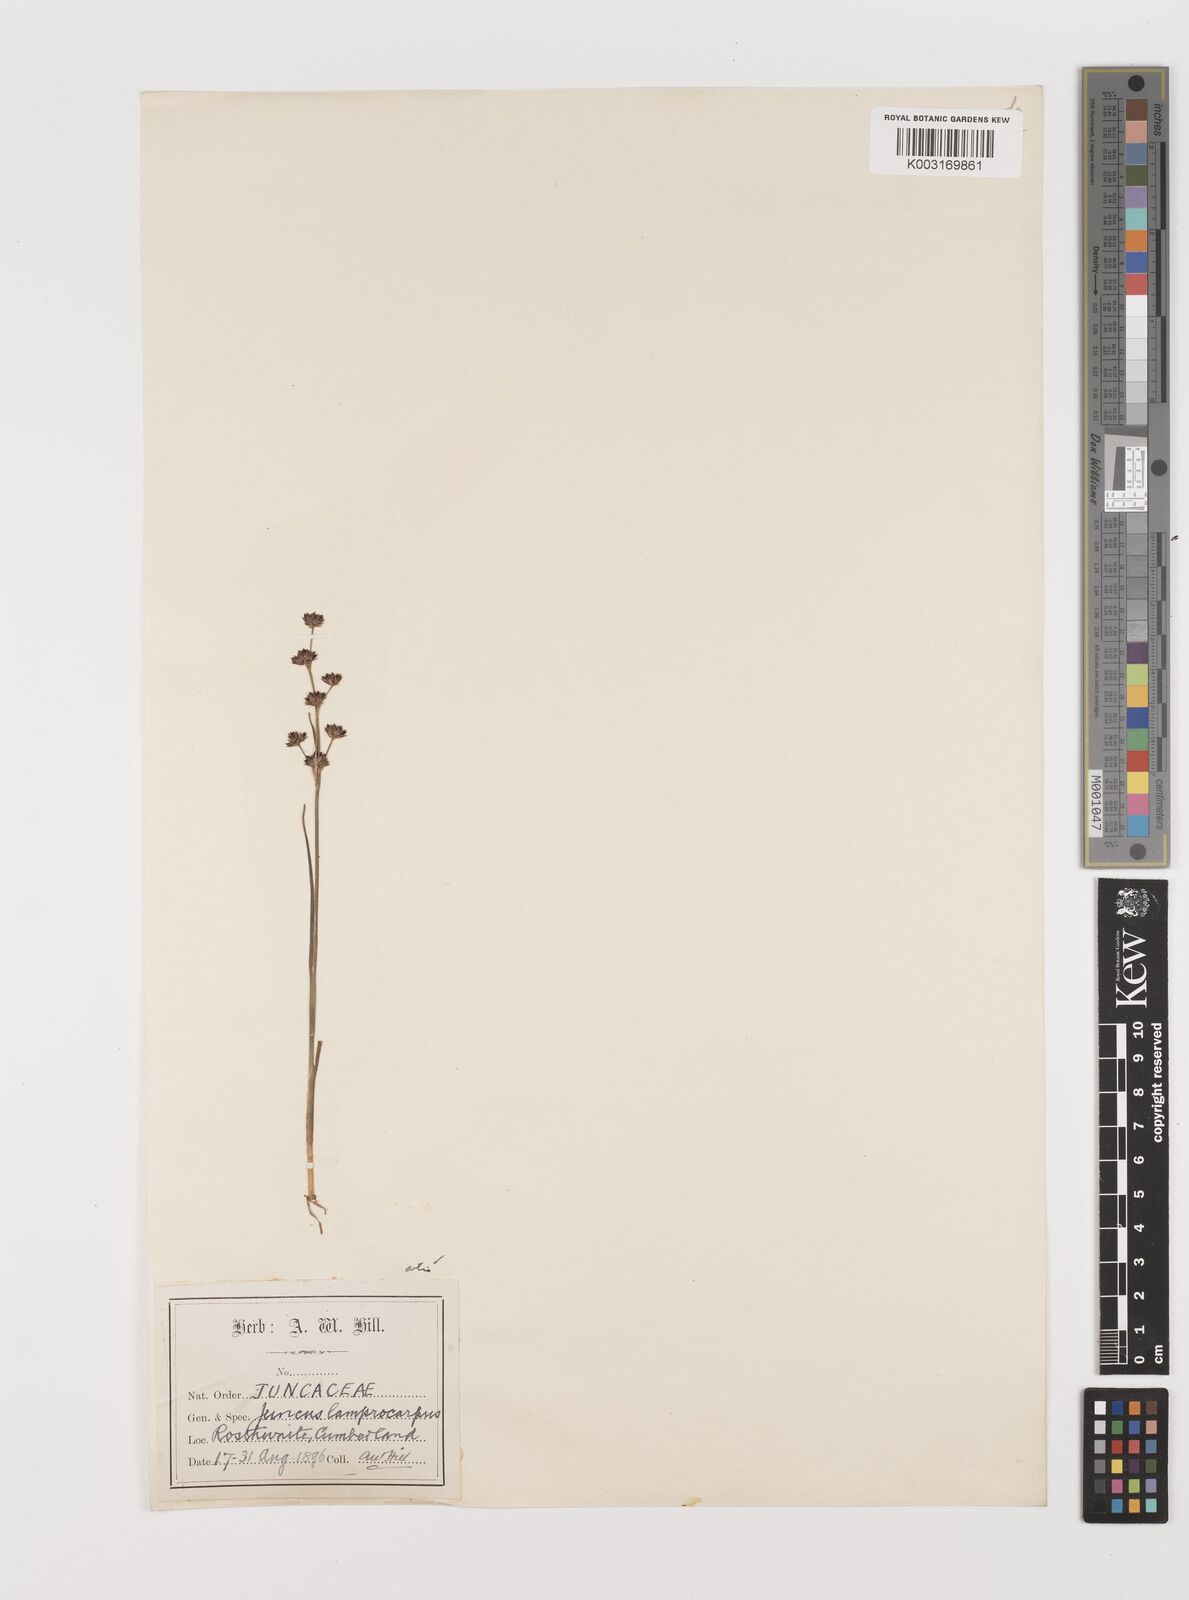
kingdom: Plantae
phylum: Tracheophyta
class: Liliopsida
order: Poales
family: Juncaceae
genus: Juncus
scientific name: Juncus articulatus
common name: Jointed rush
